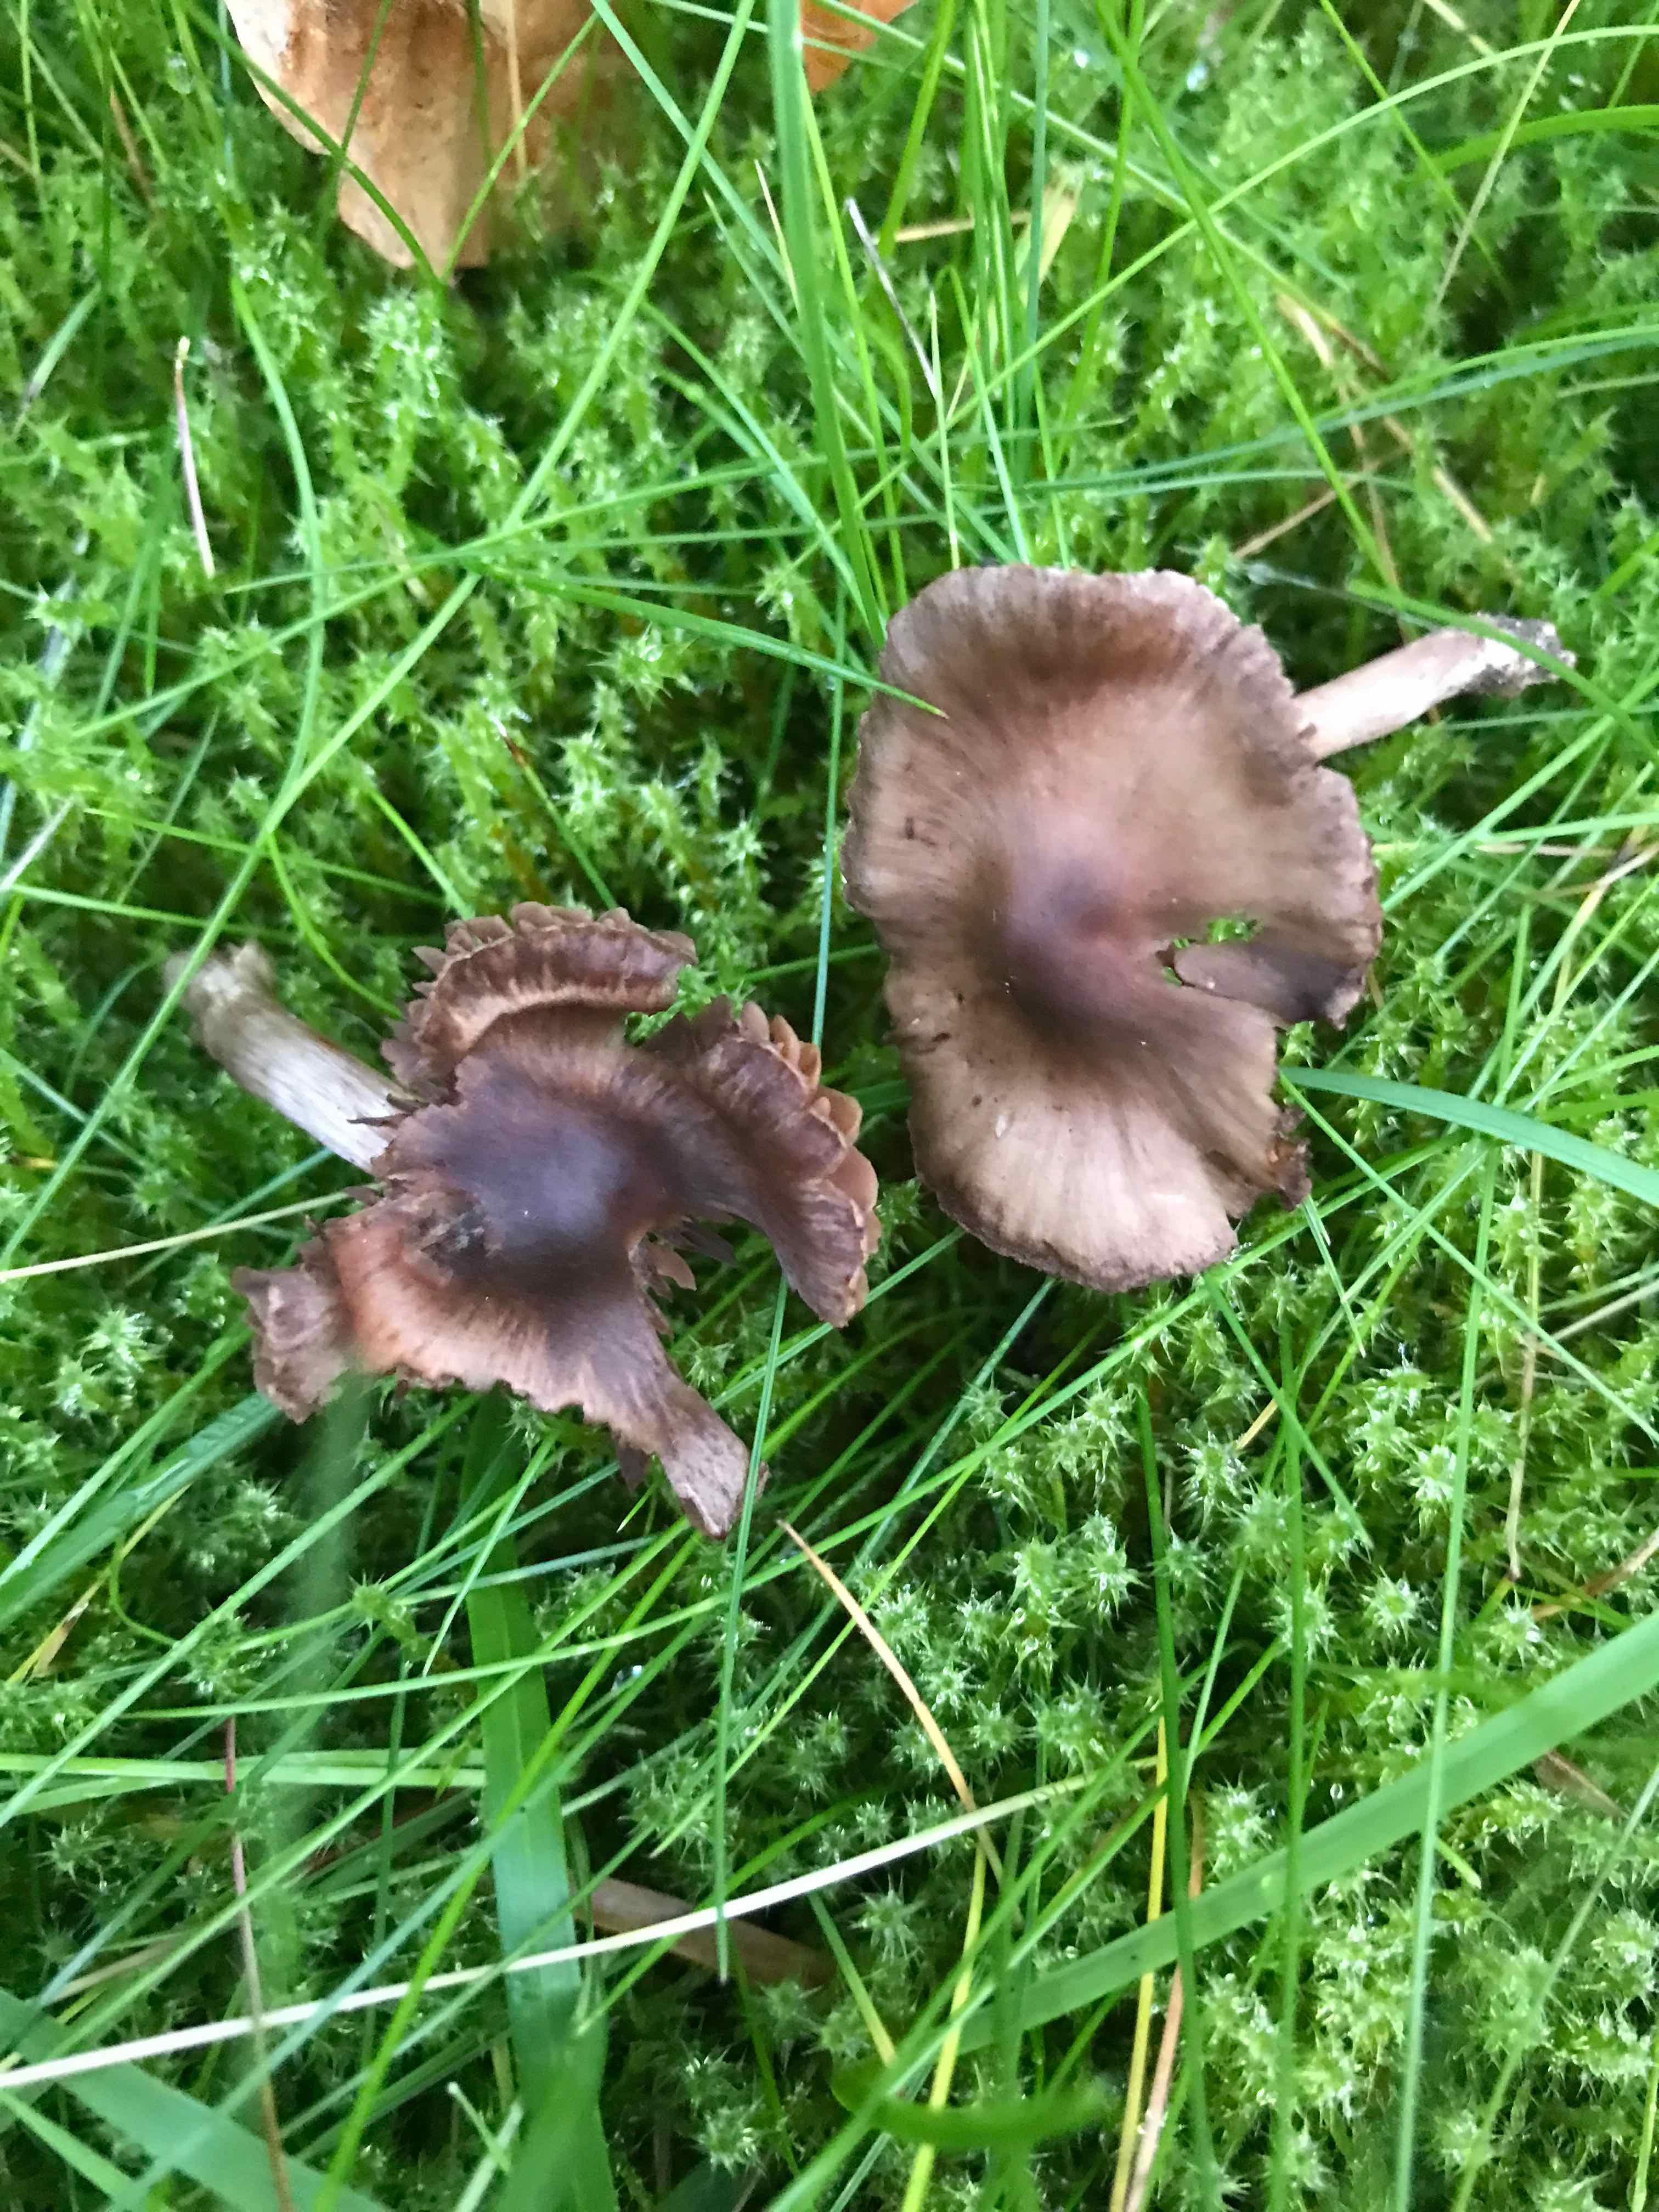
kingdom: Fungi
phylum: Basidiomycota
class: Agaricomycetes
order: Agaricales
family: Cortinariaceae
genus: Cortinarius
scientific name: Cortinarius
